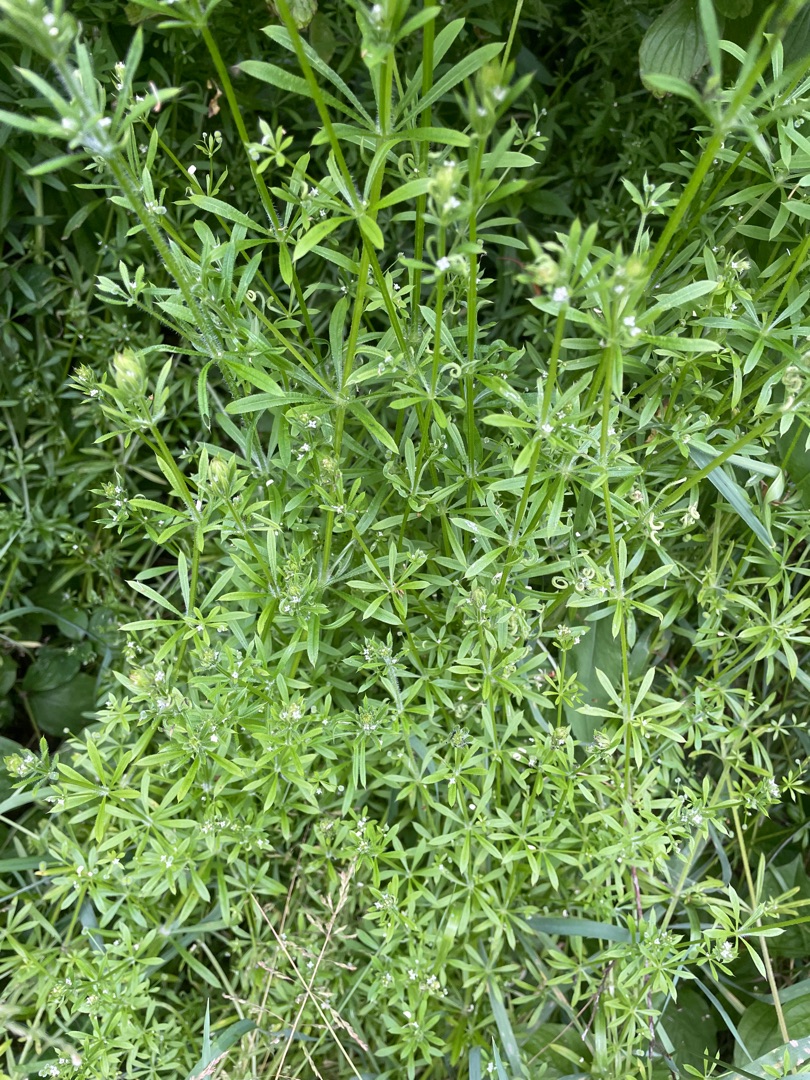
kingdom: Plantae
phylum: Tracheophyta
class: Magnoliopsida
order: Gentianales
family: Rubiaceae
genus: Galium
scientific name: Galium aparine
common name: Burre-snerre
